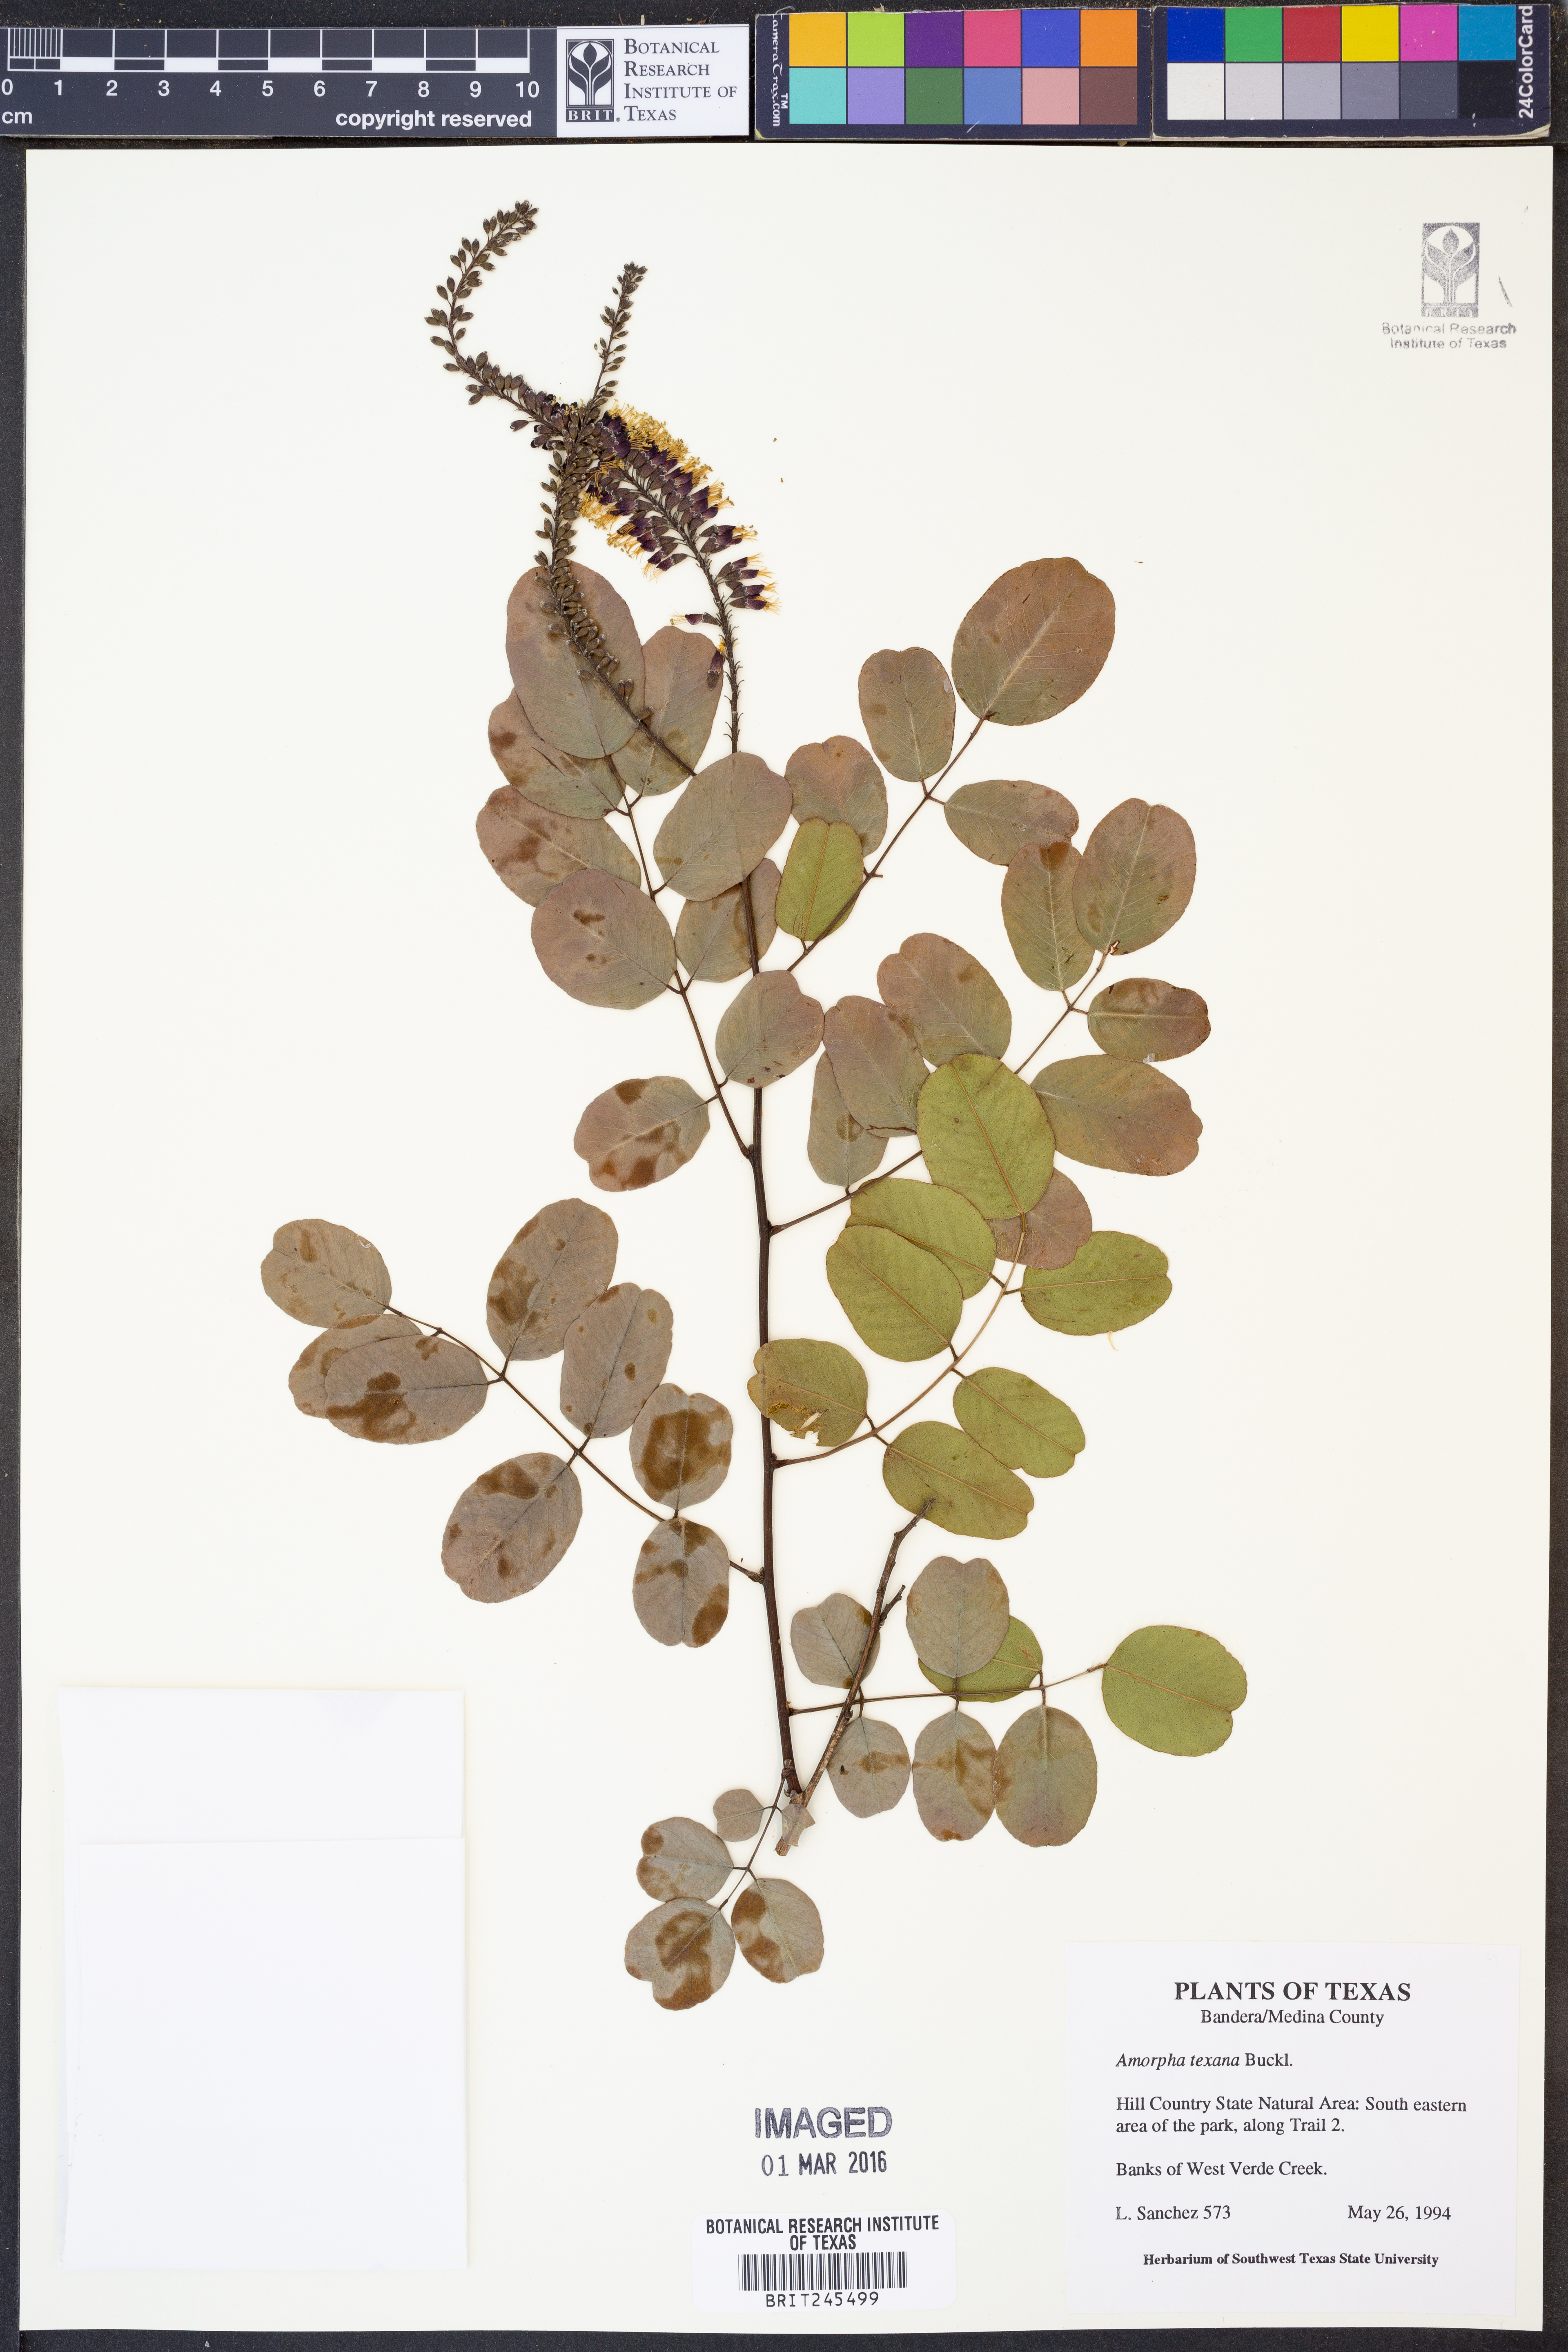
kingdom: Plantae
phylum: Tracheophyta
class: Magnoliopsida
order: Fabales
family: Fabaceae
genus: Amorpha
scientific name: Amorpha roemeriana
